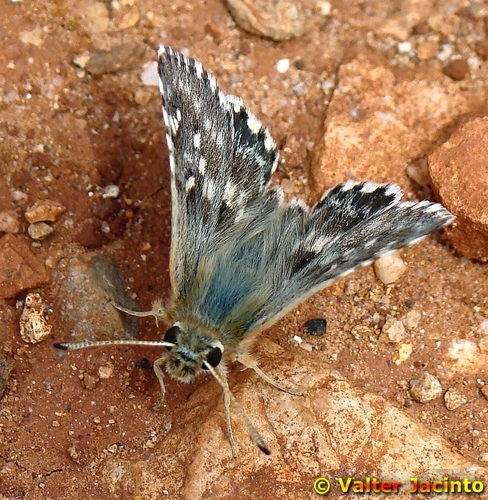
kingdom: Animalia
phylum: Arthropoda
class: Insecta
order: Lepidoptera
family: Hesperiidae
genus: Syrichtus
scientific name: Syrichtus Muschampia proto
